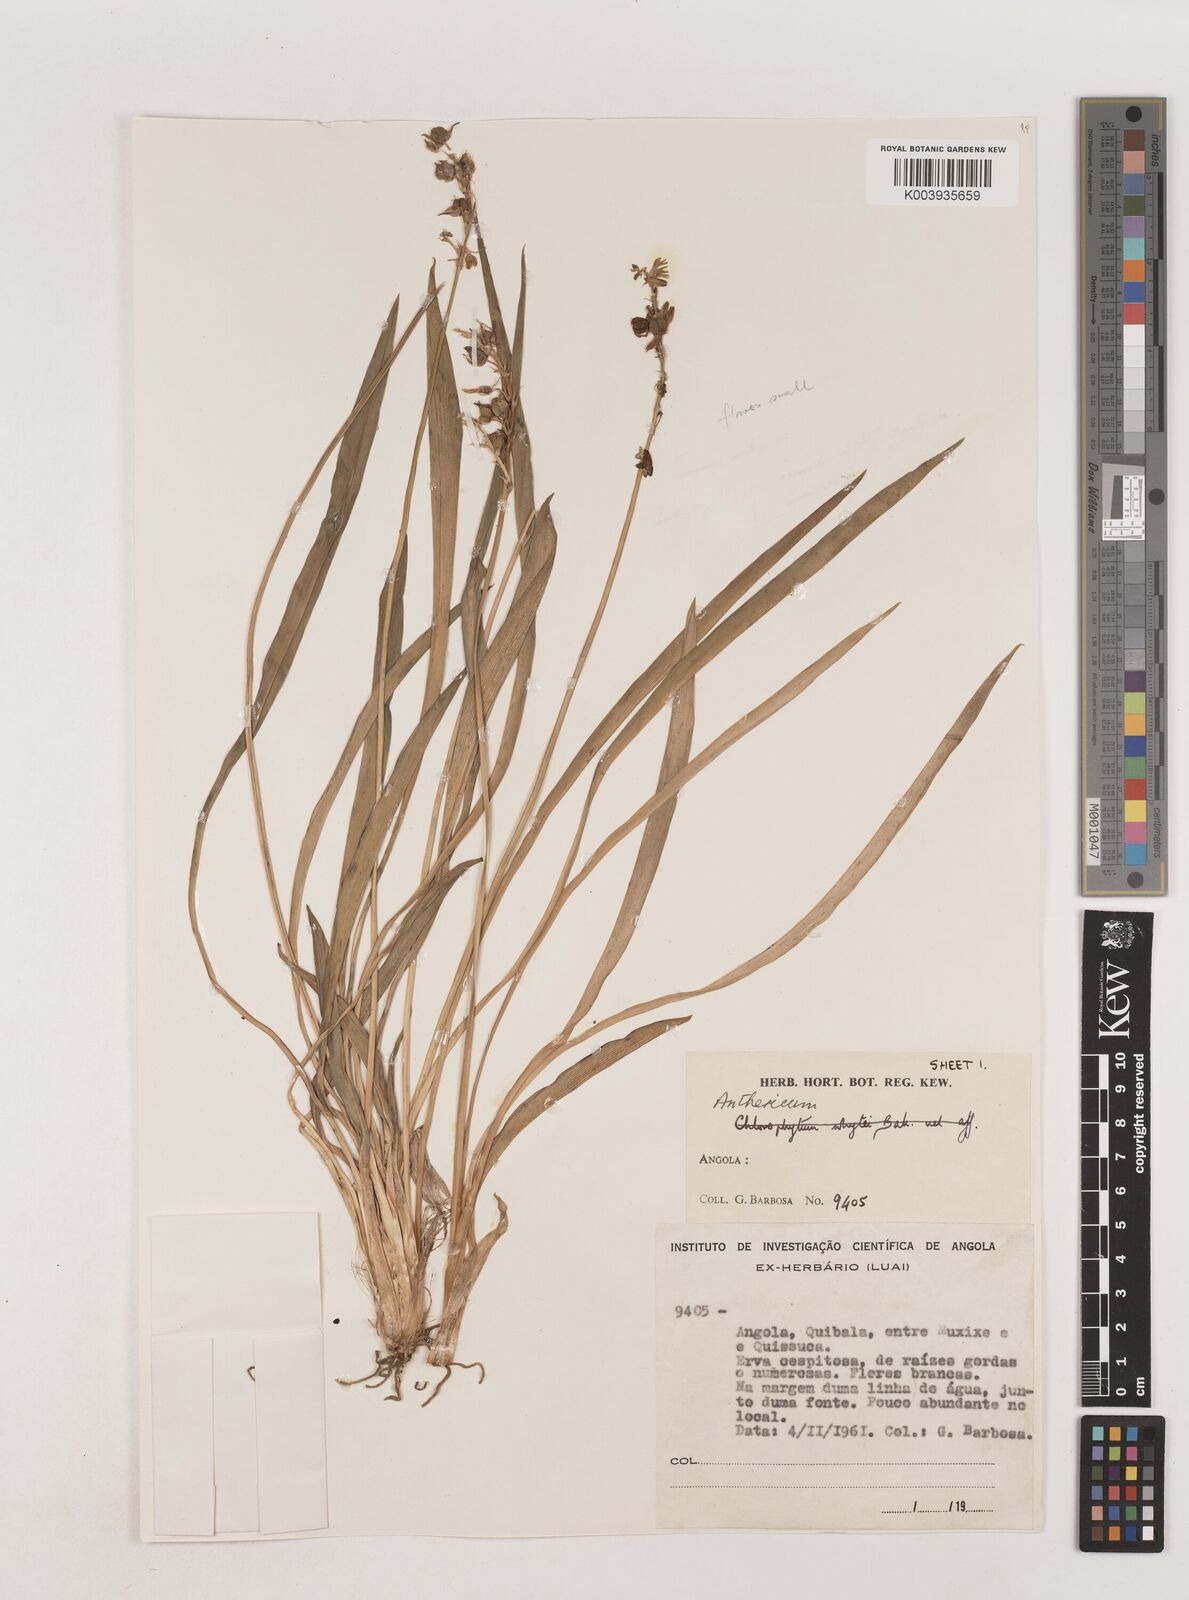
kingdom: Plantae
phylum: Tracheophyta
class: Liliopsida
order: Asparagales
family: Asparagaceae
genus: Chlorophytum
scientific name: Chlorophytum
